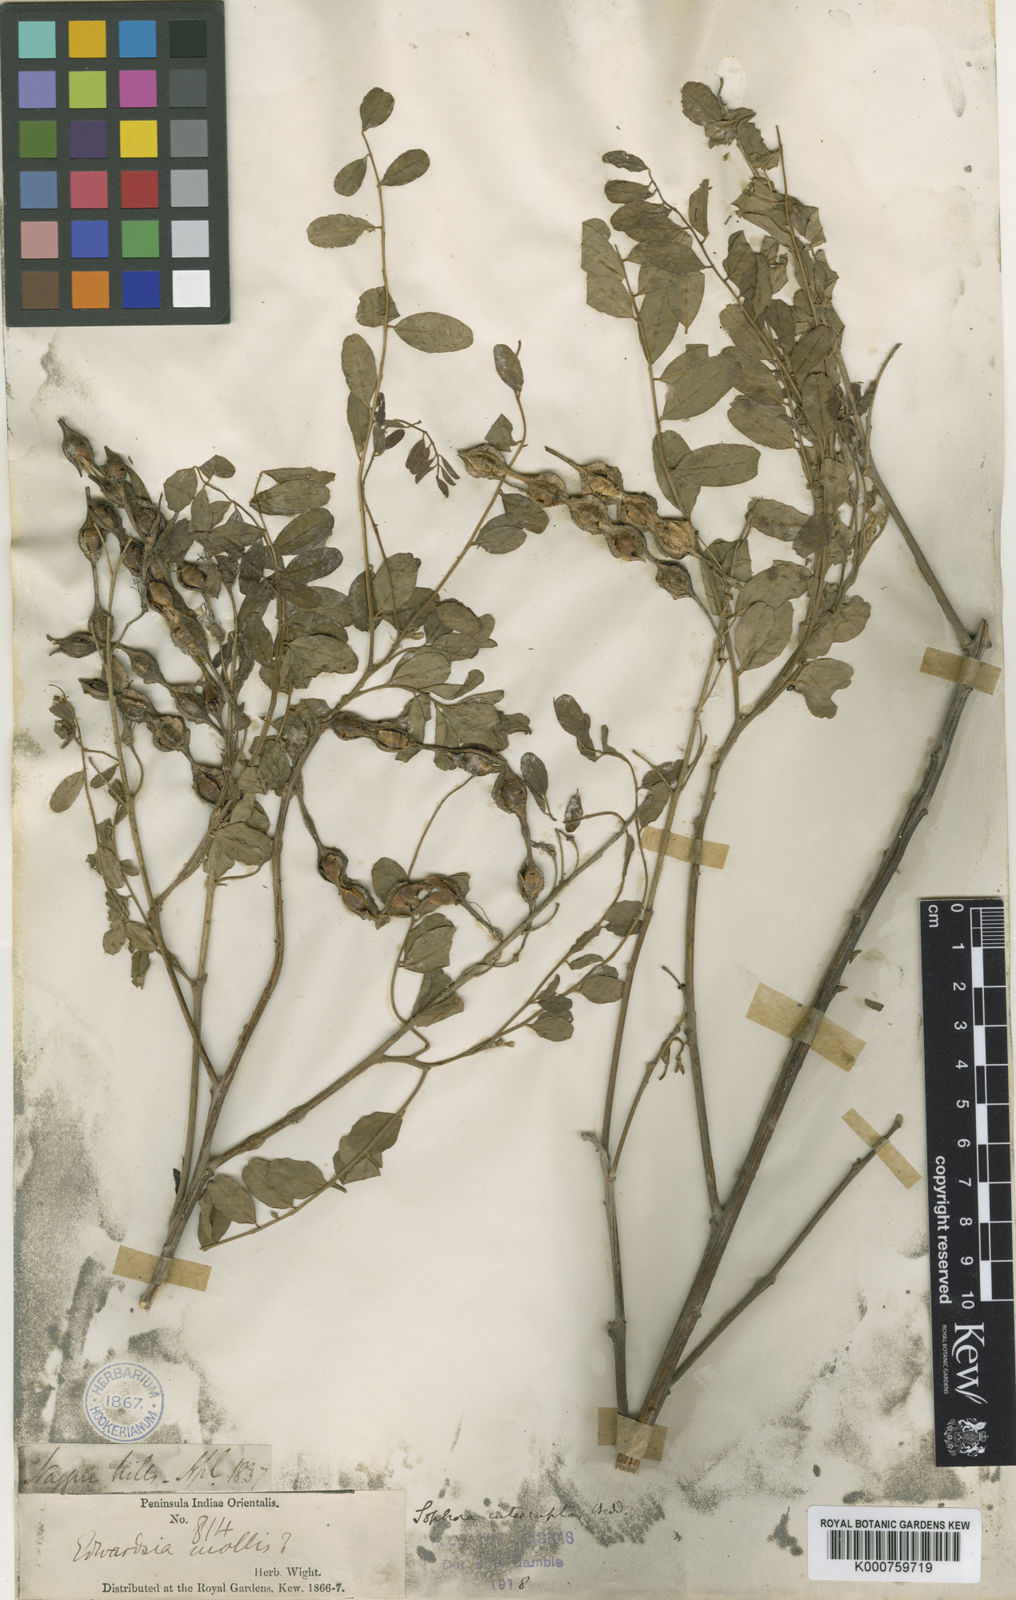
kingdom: Plantae
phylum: Tracheophyta
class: Magnoliopsida
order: Fabales
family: Fabaceae
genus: Sophora
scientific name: Sophora
